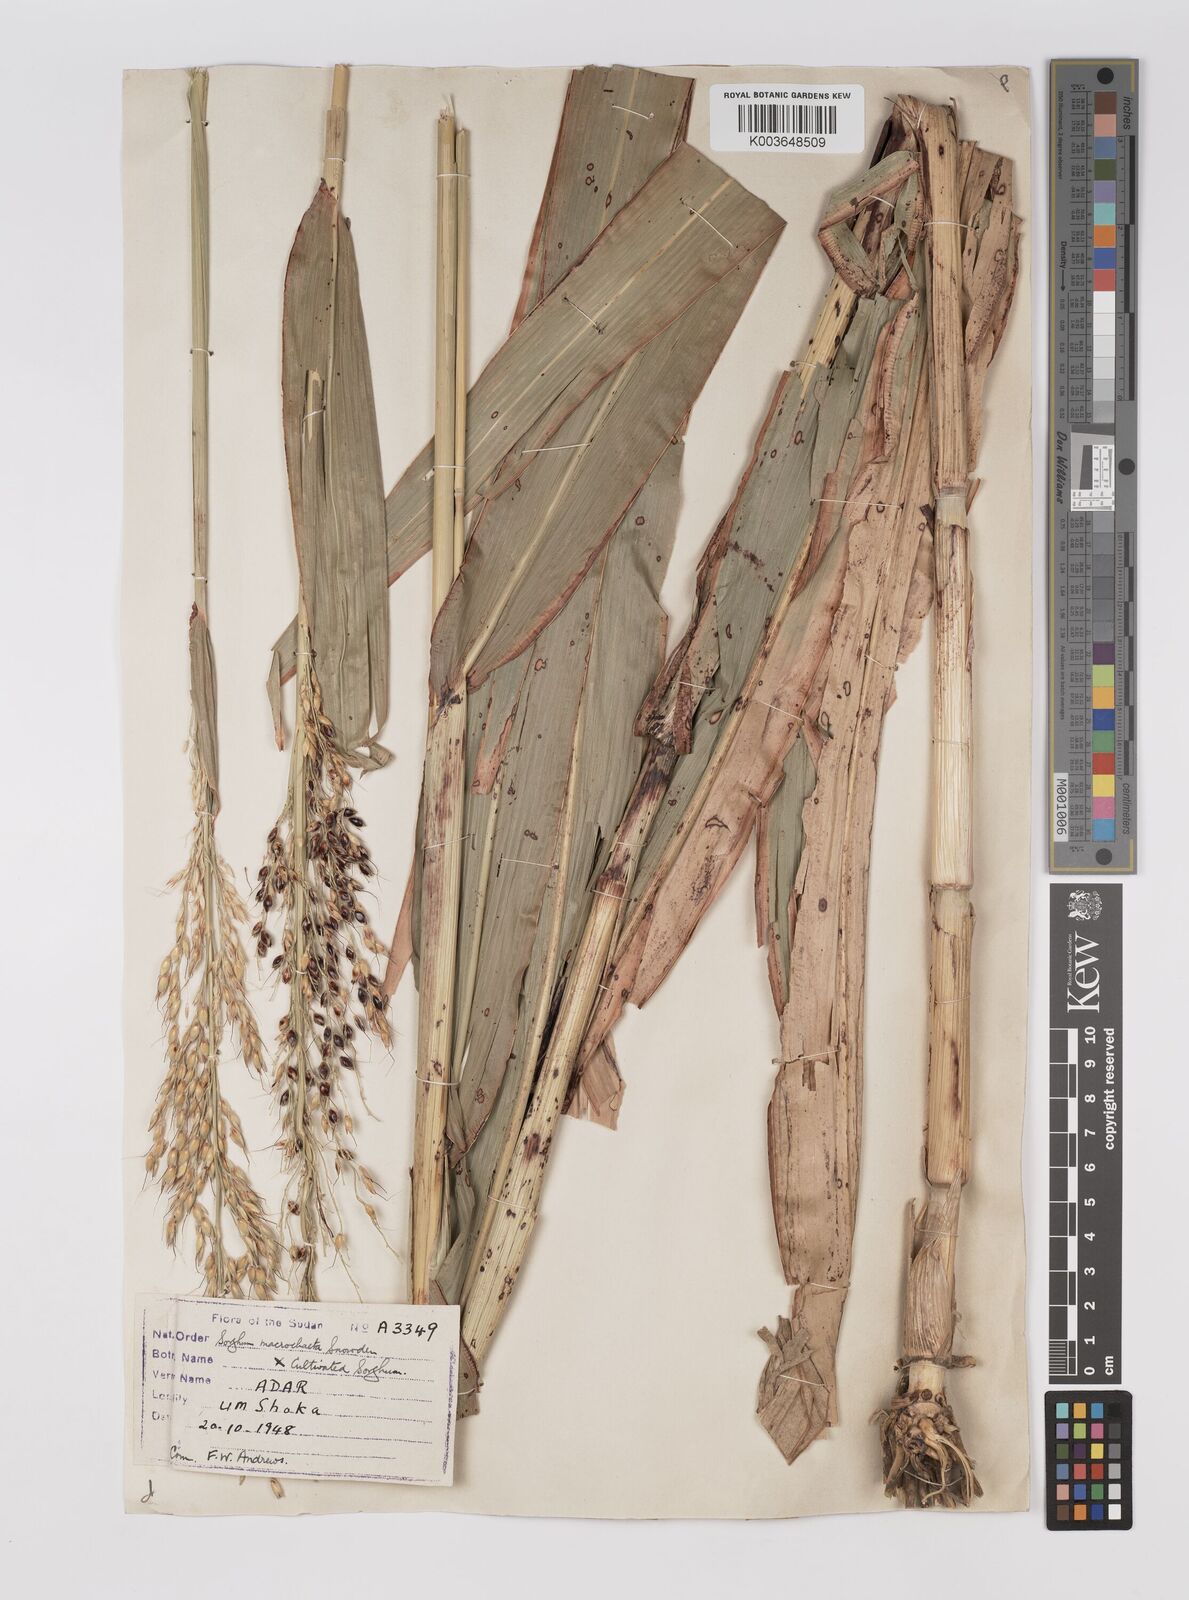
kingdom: Plantae
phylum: Tracheophyta
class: Liliopsida
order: Poales
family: Poaceae
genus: Sorghum
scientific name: Sorghum drummondii
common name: Sudangrass
